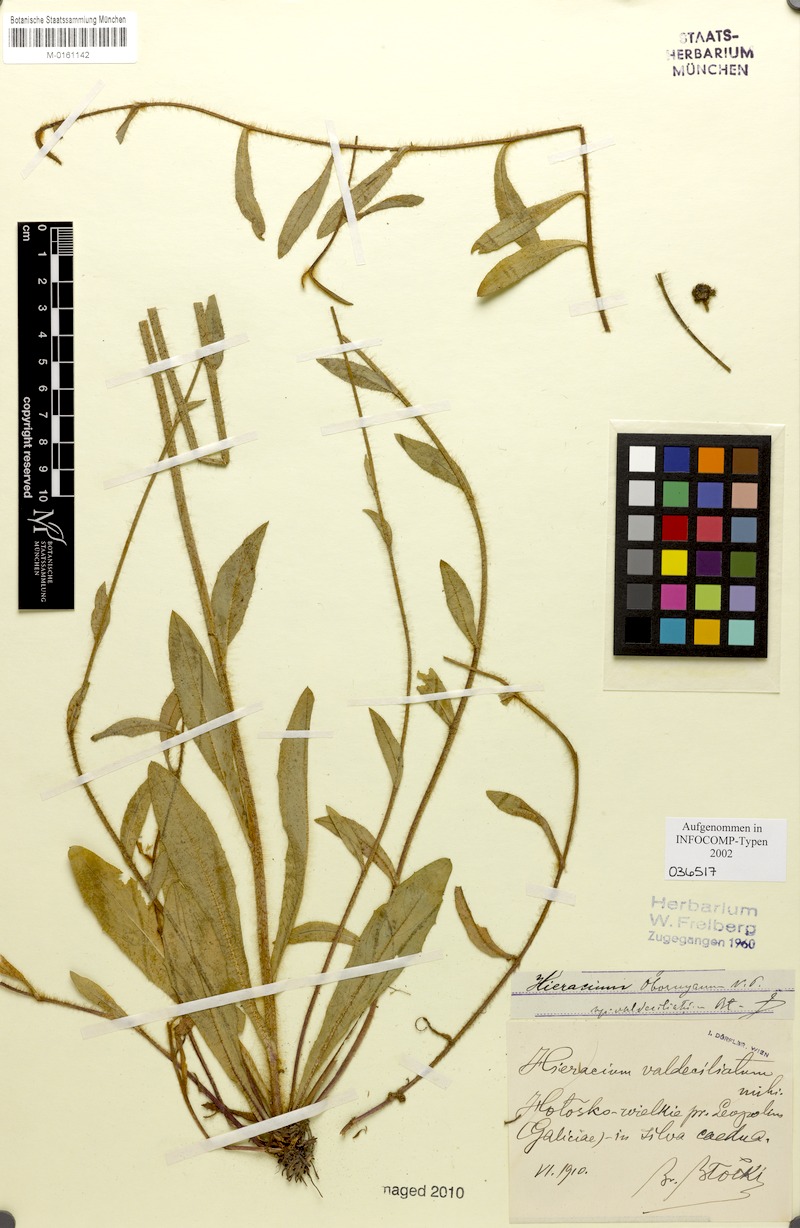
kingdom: Plantae
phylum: Tracheophyta
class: Magnoliopsida
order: Asterales
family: Asteraceae
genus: Pilosella
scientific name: Pilosella polymastix
